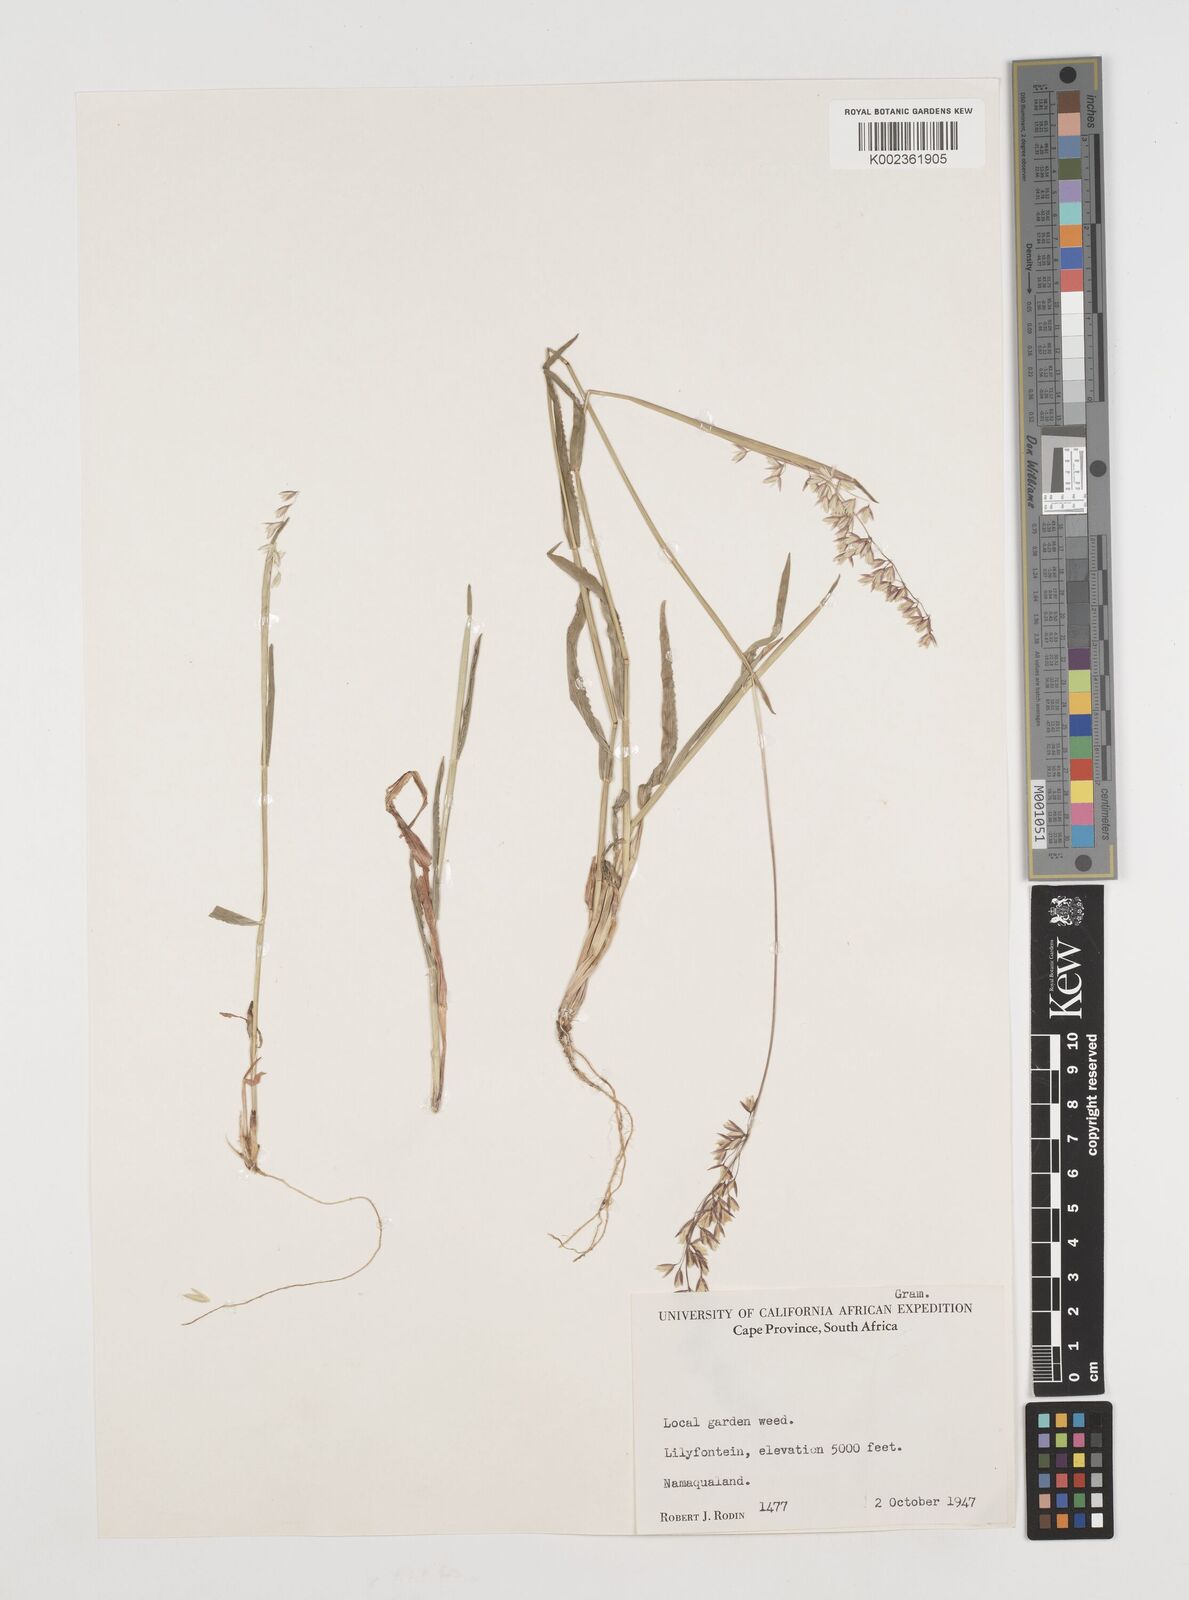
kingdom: Plantae
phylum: Tracheophyta
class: Liliopsida
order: Poales
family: Poaceae
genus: Ehrharta
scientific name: Ehrharta calycina
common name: Perennial veldtgrass
